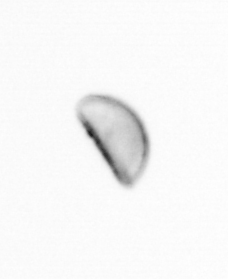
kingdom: Chromista
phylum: Ochrophyta
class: Bacillariophyceae
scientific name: Bacillariophyceae
